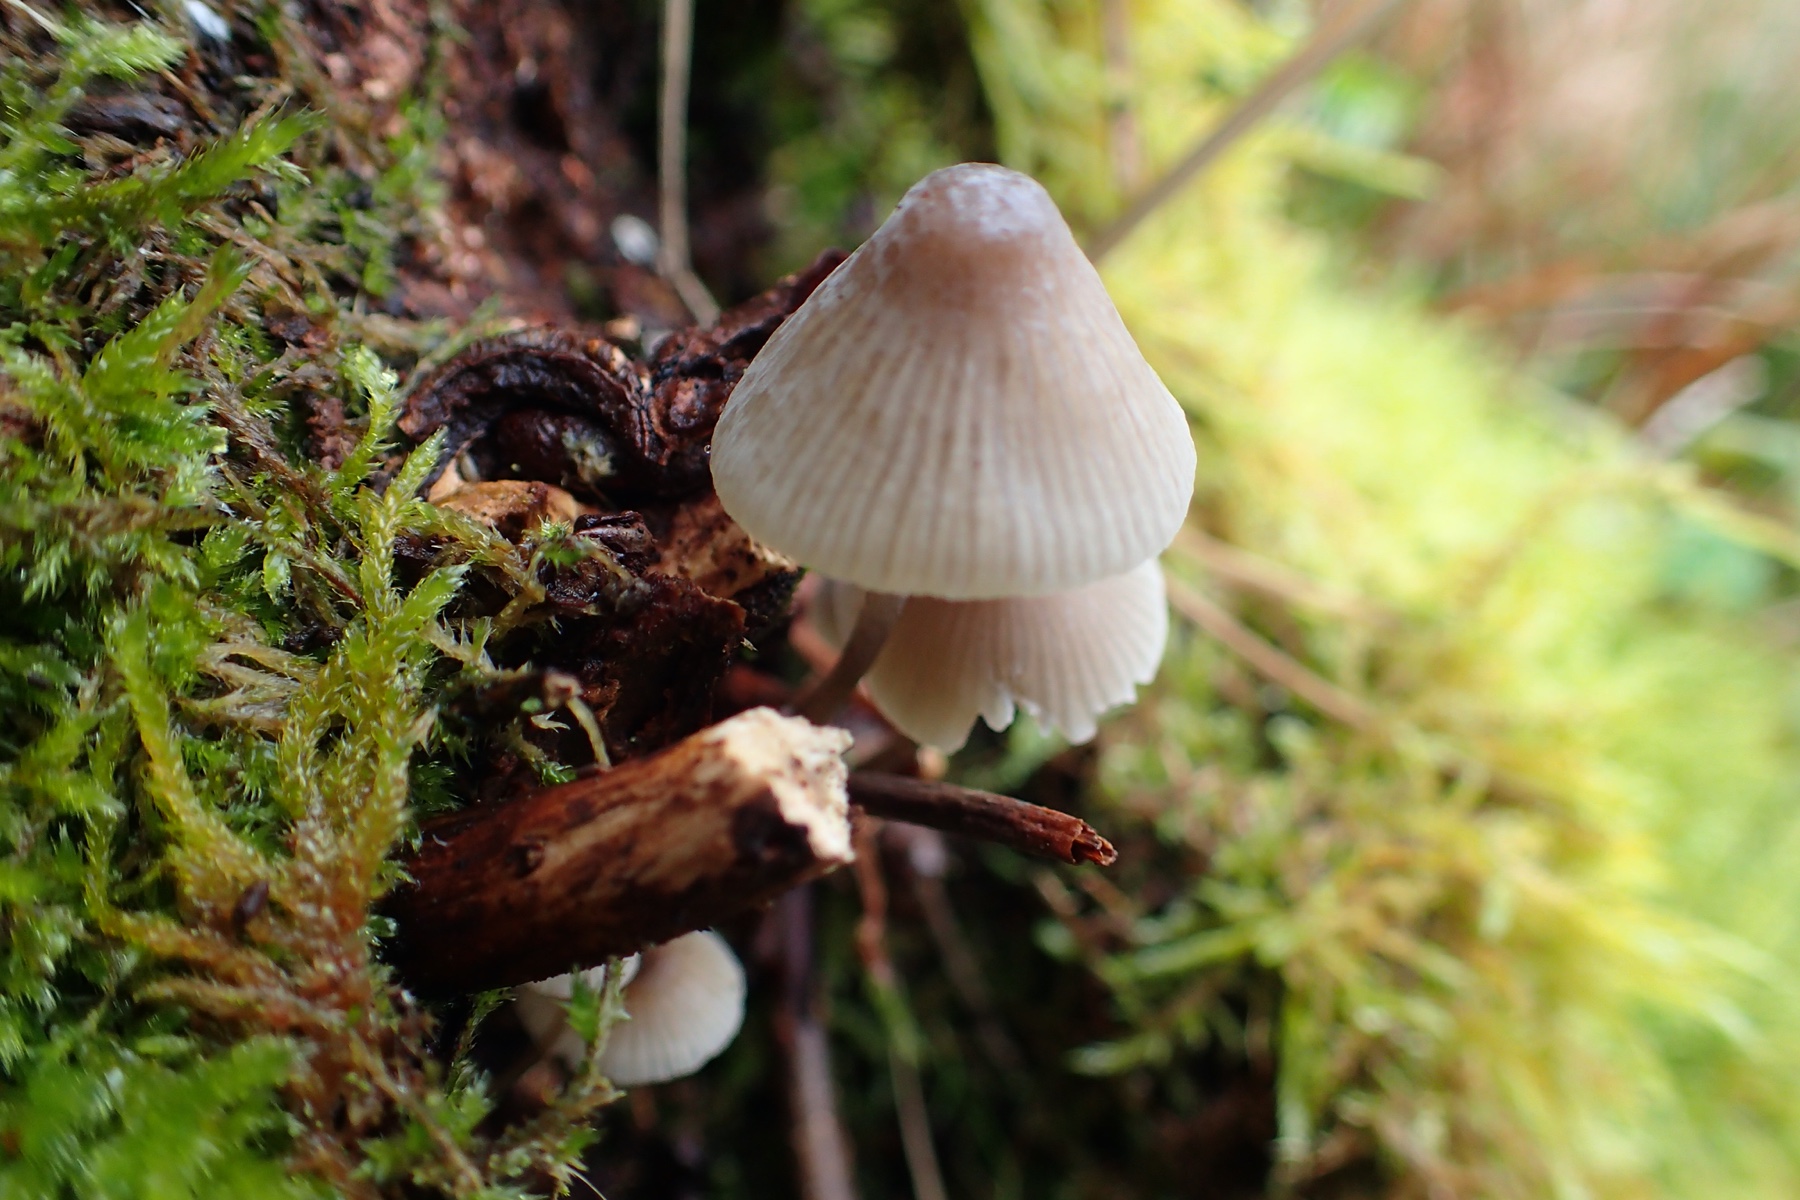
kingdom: Fungi
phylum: Basidiomycota
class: Agaricomycetes
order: Agaricales
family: Mycenaceae
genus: Mycena
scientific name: Mycena
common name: huesvamp
